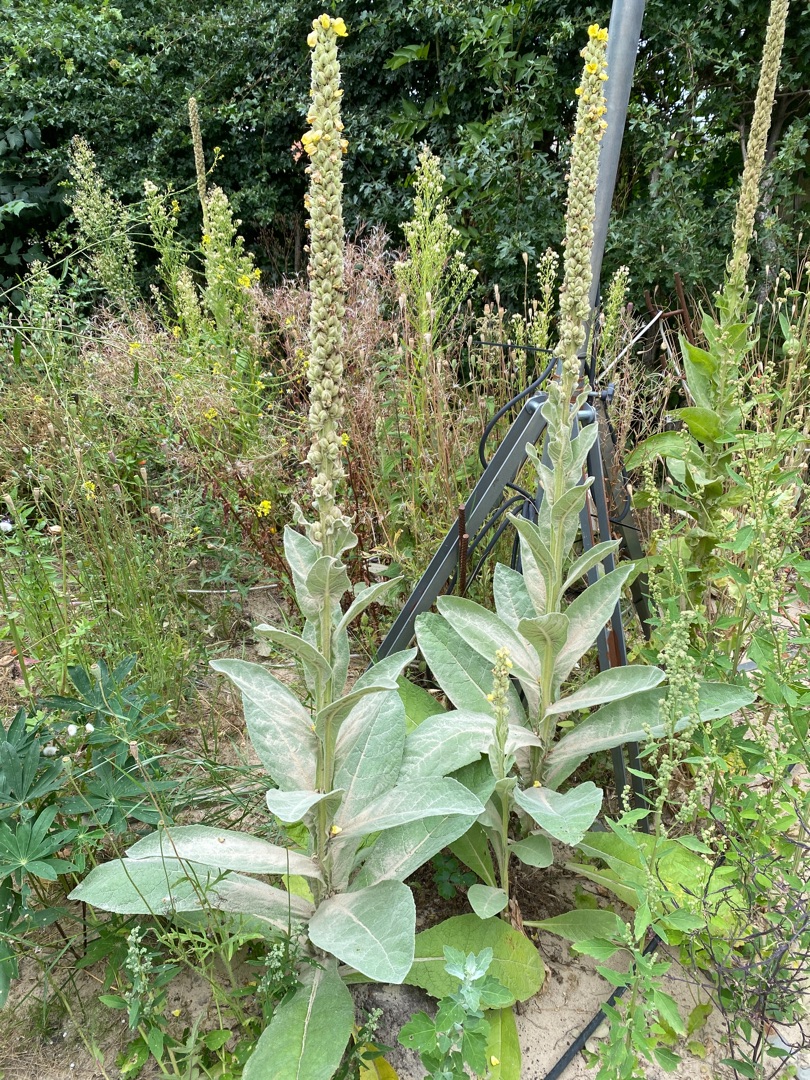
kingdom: Plantae
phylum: Tracheophyta
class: Magnoliopsida
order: Lamiales
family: Scrophulariaceae
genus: Verbascum
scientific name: Verbascum thapsus
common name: Filtbladet kongelys
